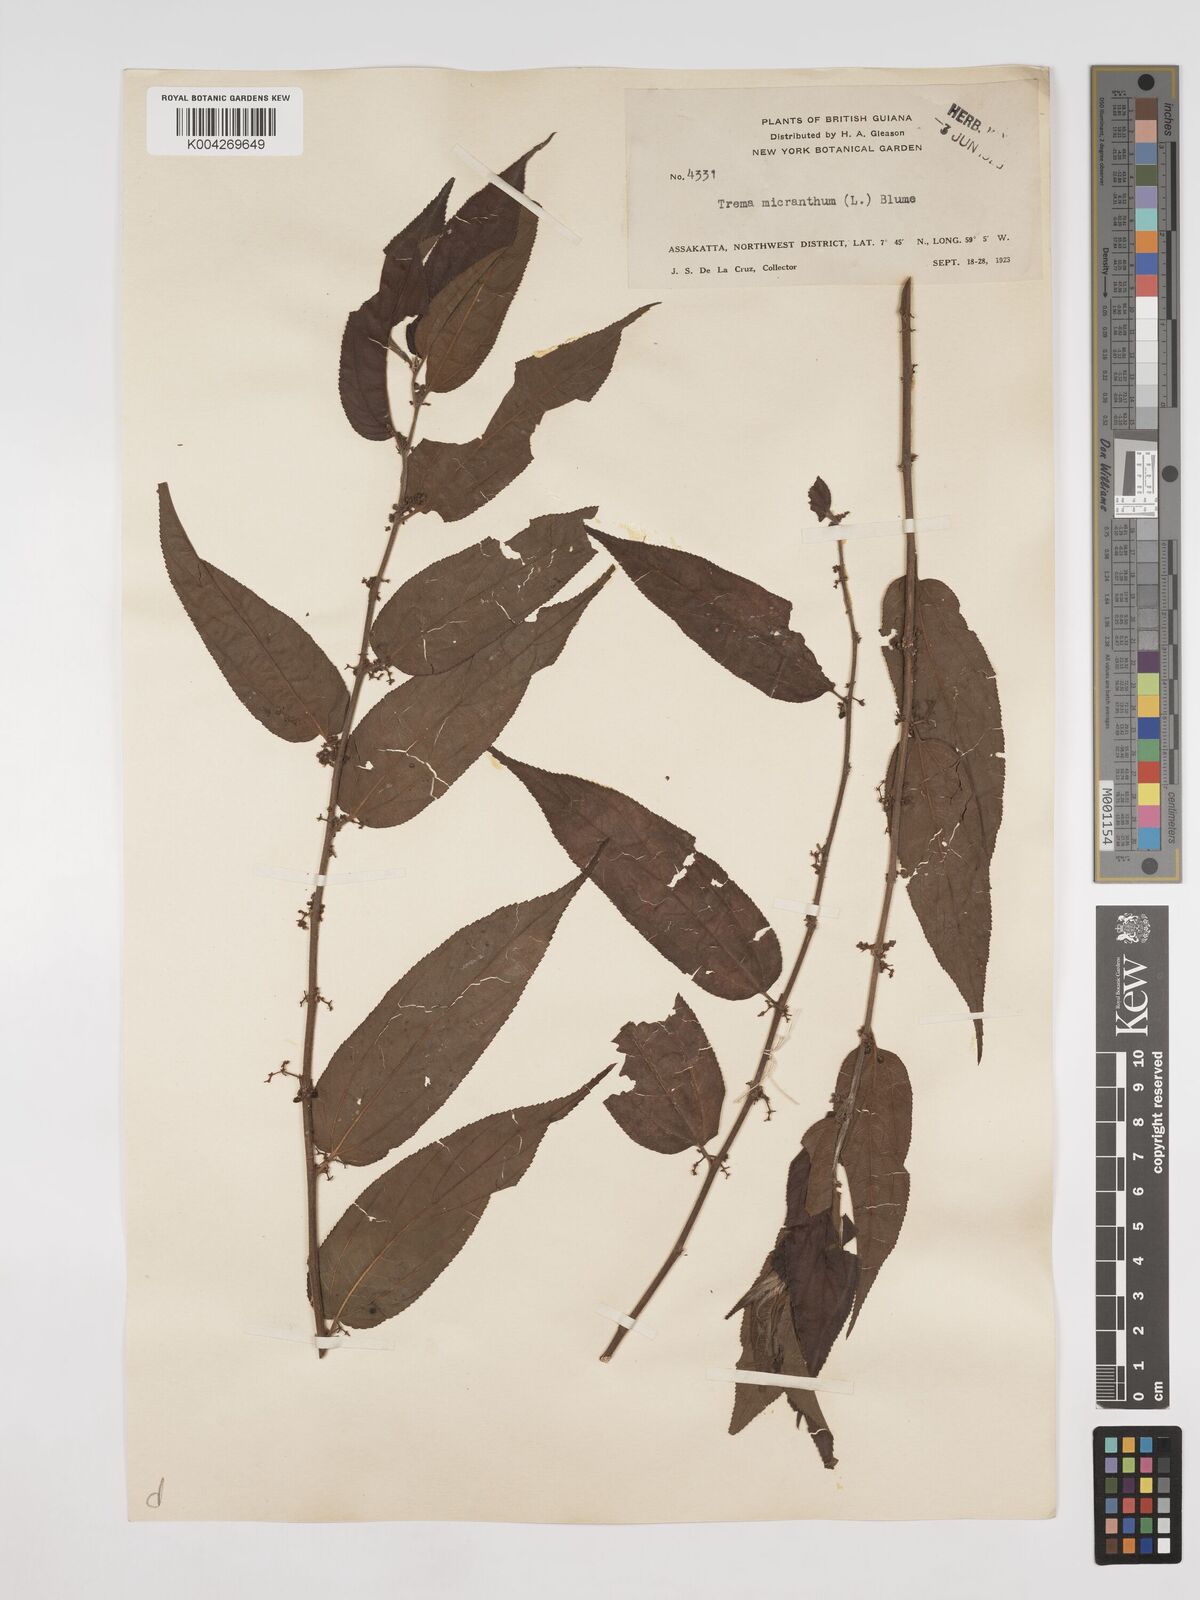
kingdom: Plantae
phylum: Tracheophyta
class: Magnoliopsida
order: Rosales
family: Cannabaceae
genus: Trema
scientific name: Trema micranthum
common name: Jamaican nettletree
